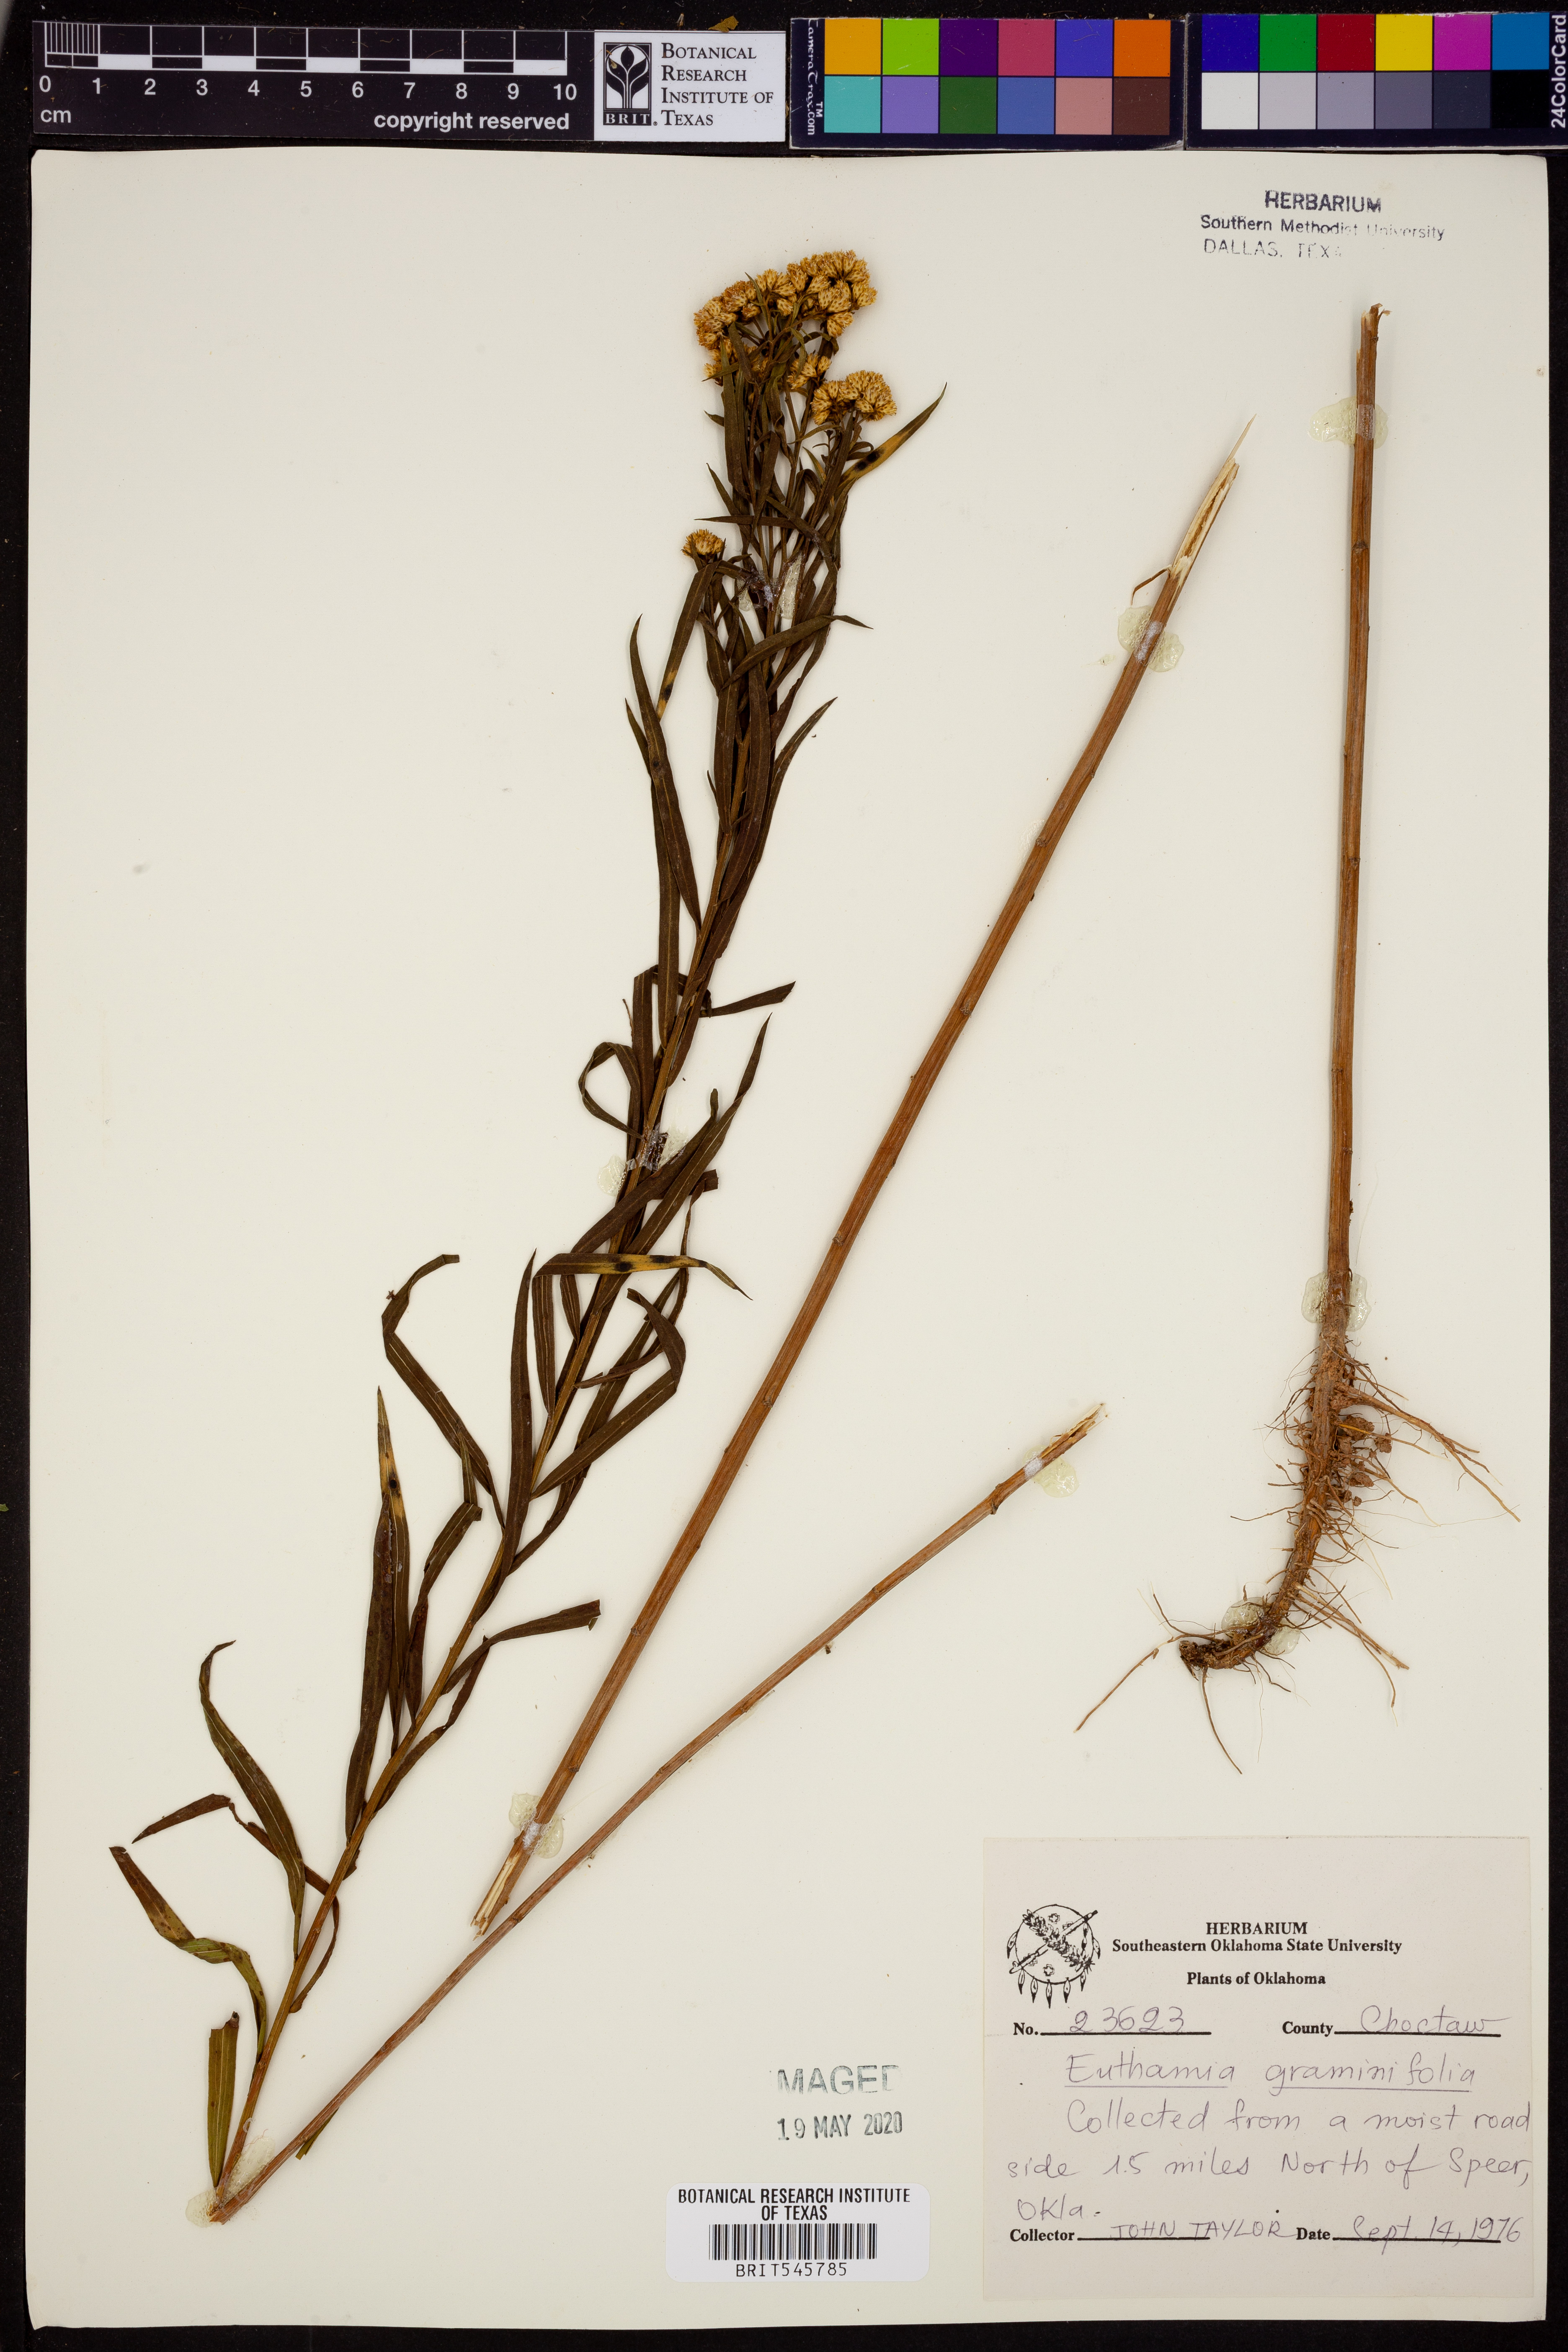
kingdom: Plantae
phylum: Tracheophyta
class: Magnoliopsida
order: Asterales
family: Asteraceae
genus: Euthamia
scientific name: Euthamia graminifolia
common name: Common goldentop
